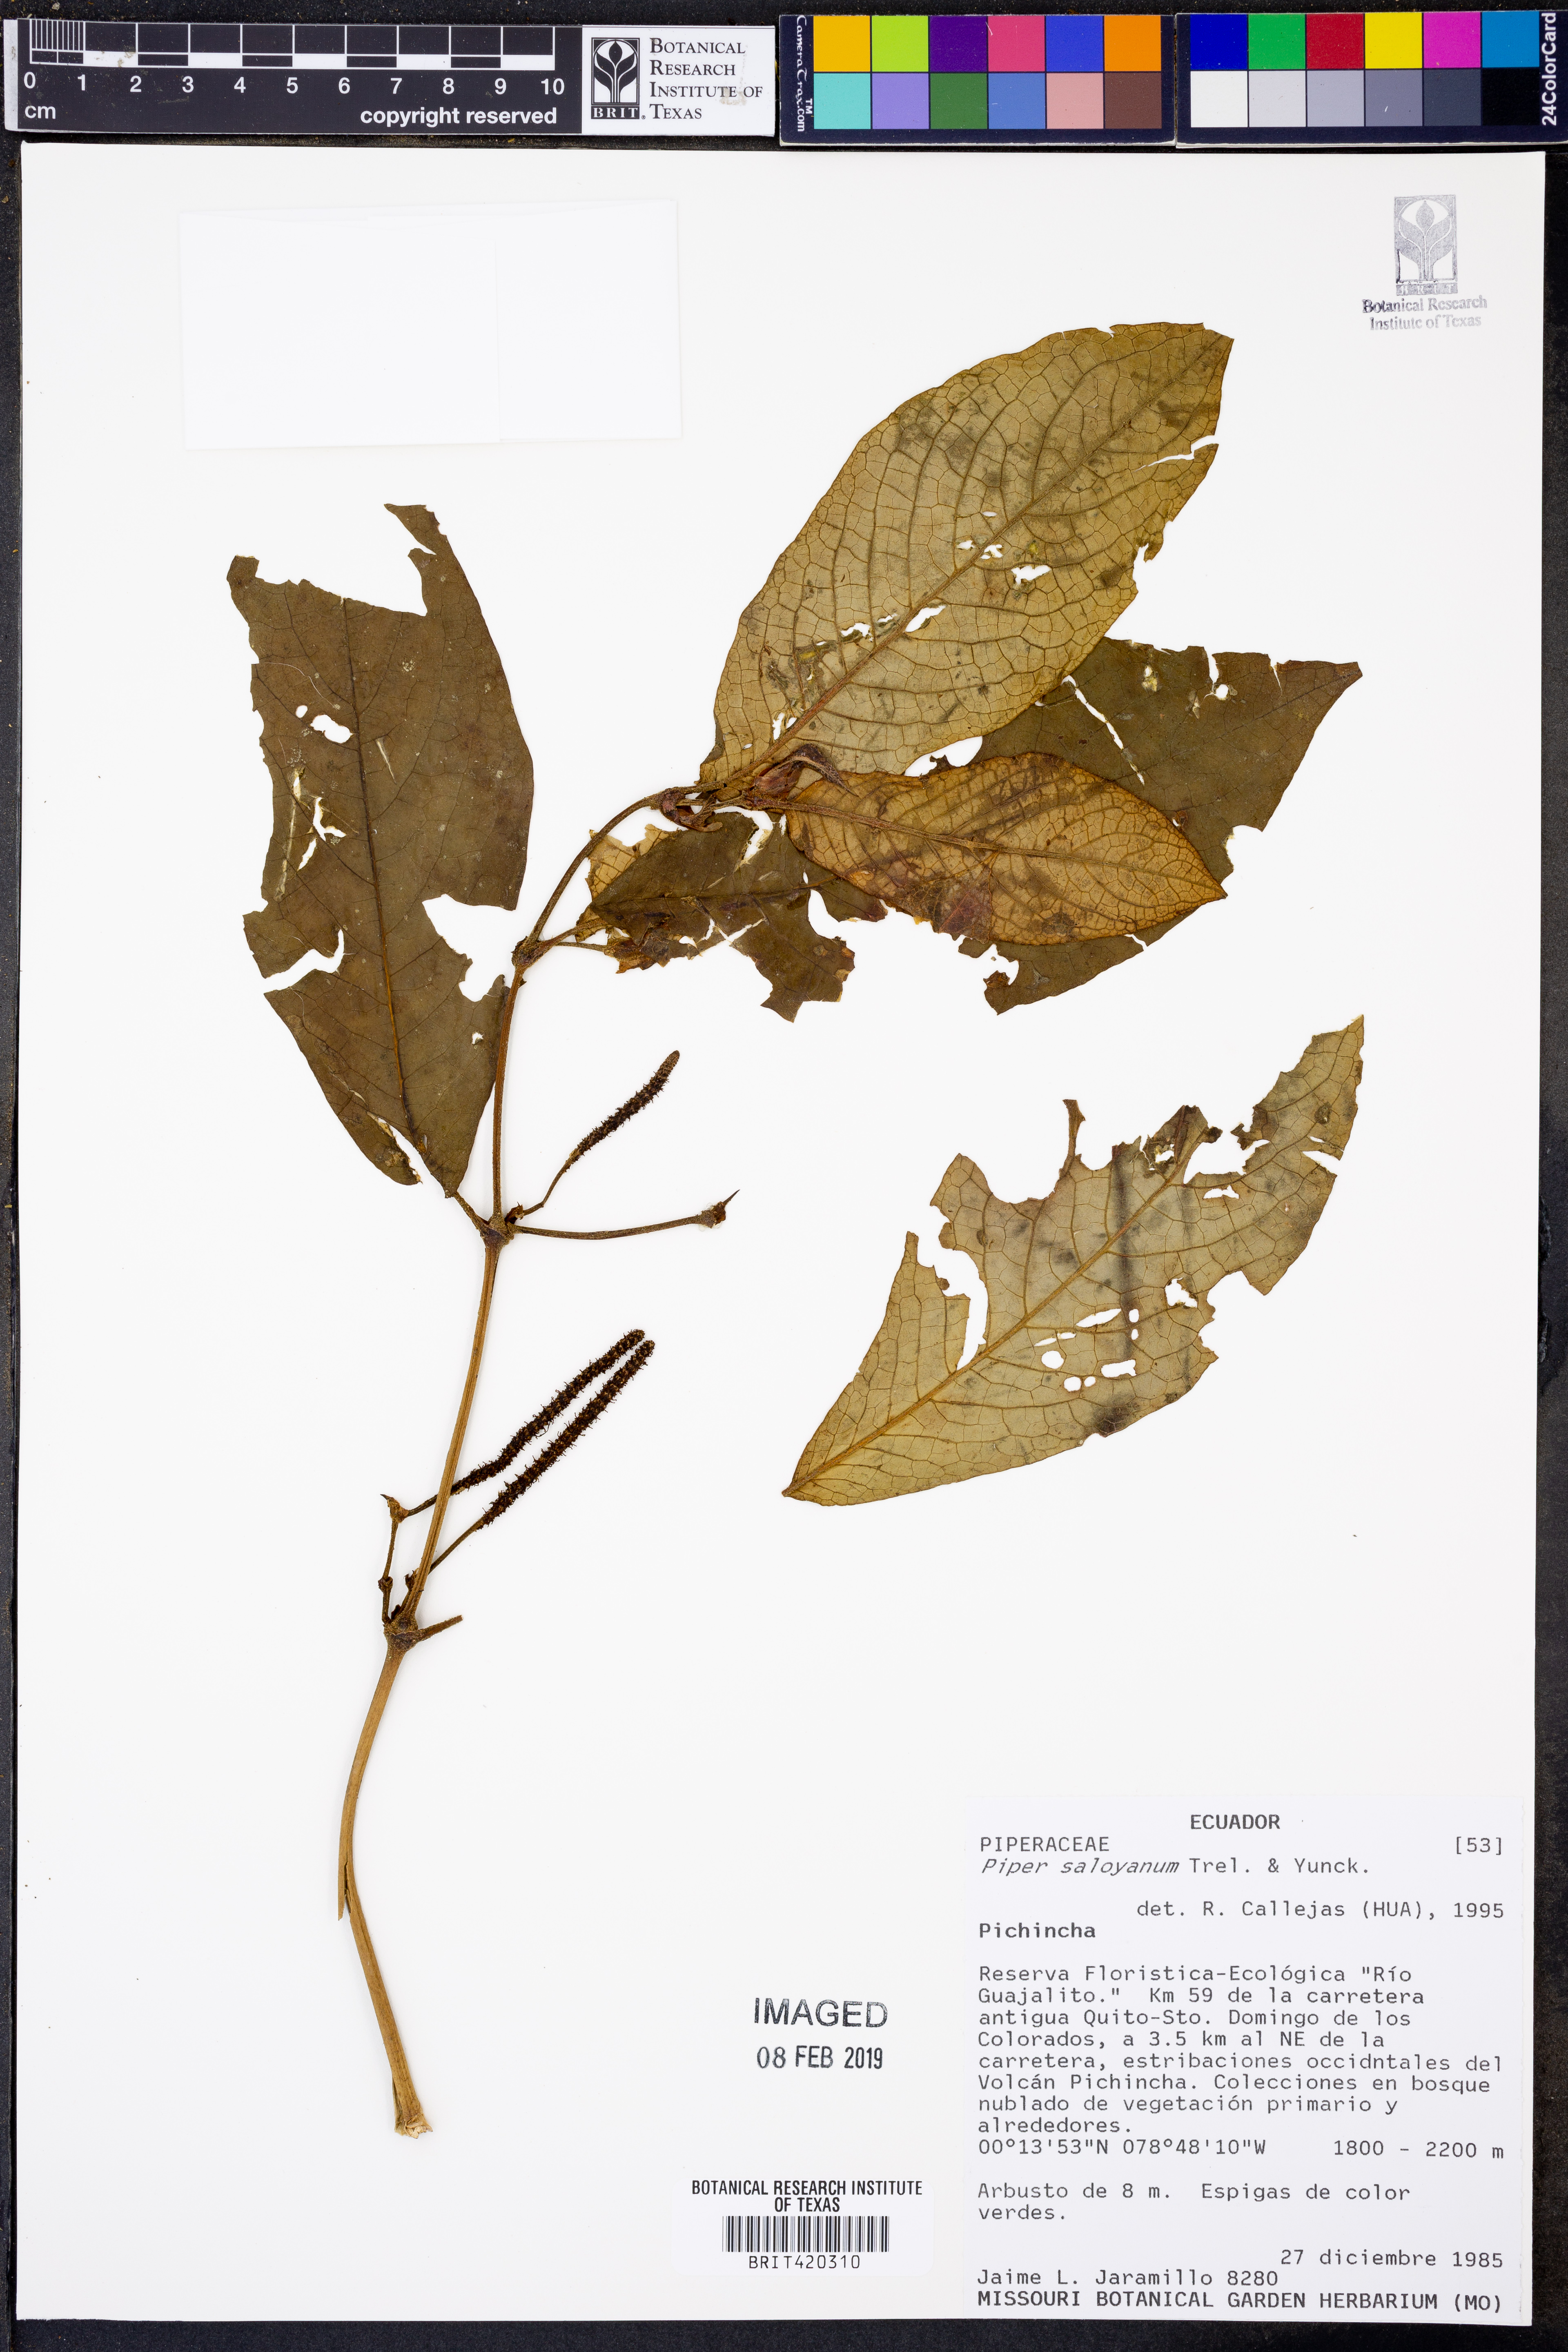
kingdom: Plantae
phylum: Tracheophyta
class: Magnoliopsida
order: Piperales
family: Piperaceae
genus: Piper
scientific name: Piper saloyanum
